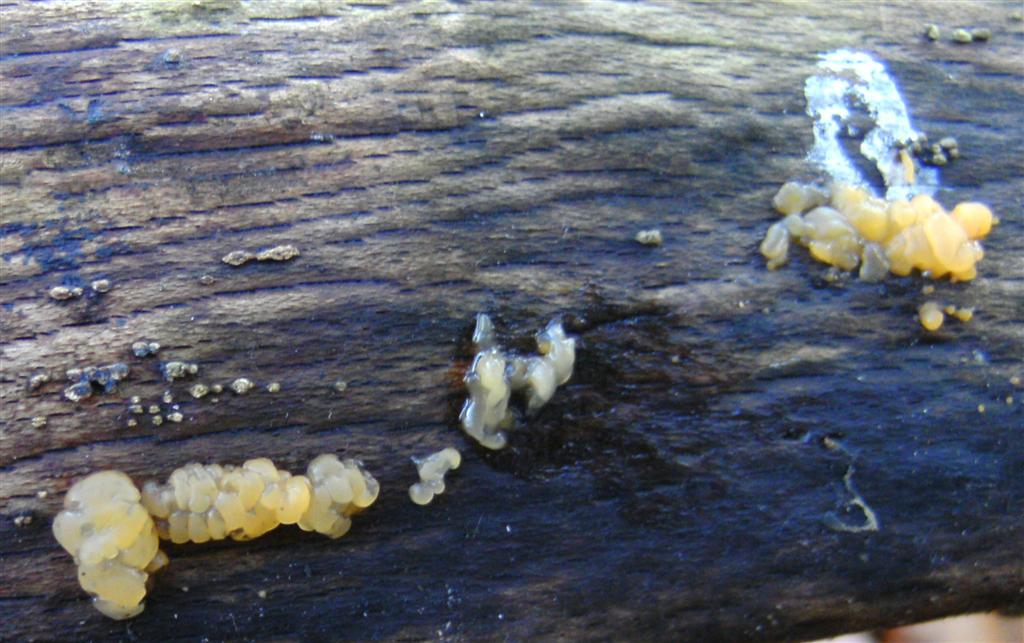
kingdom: Fungi
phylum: Basidiomycota
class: Dacrymycetes
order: Dacrymycetales
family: Dacrymycetaceae
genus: Dacrymyces
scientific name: Dacrymyces lacrymalis
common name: rynket tåresvamp
